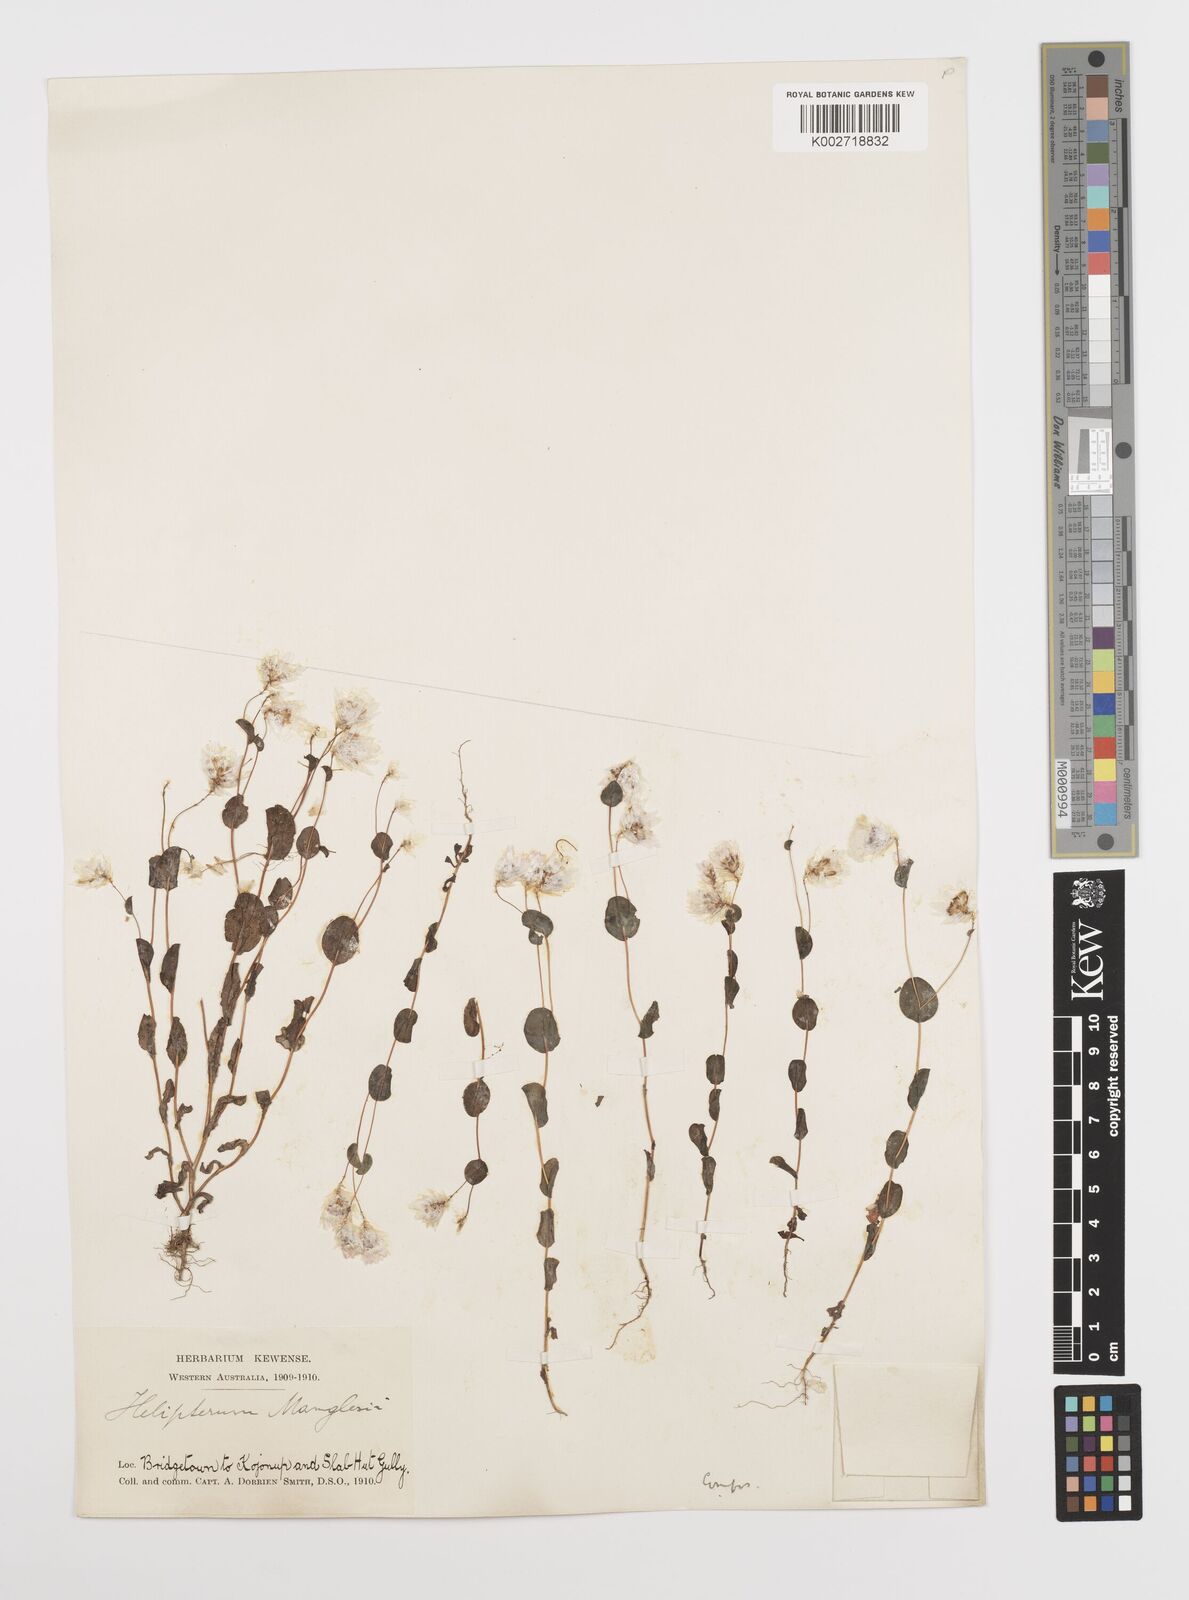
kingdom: Plantae
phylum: Tracheophyta
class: Magnoliopsida
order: Asterales
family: Asteraceae
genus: Rhodanthe
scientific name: Rhodanthe manglesii
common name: Pink sunray
